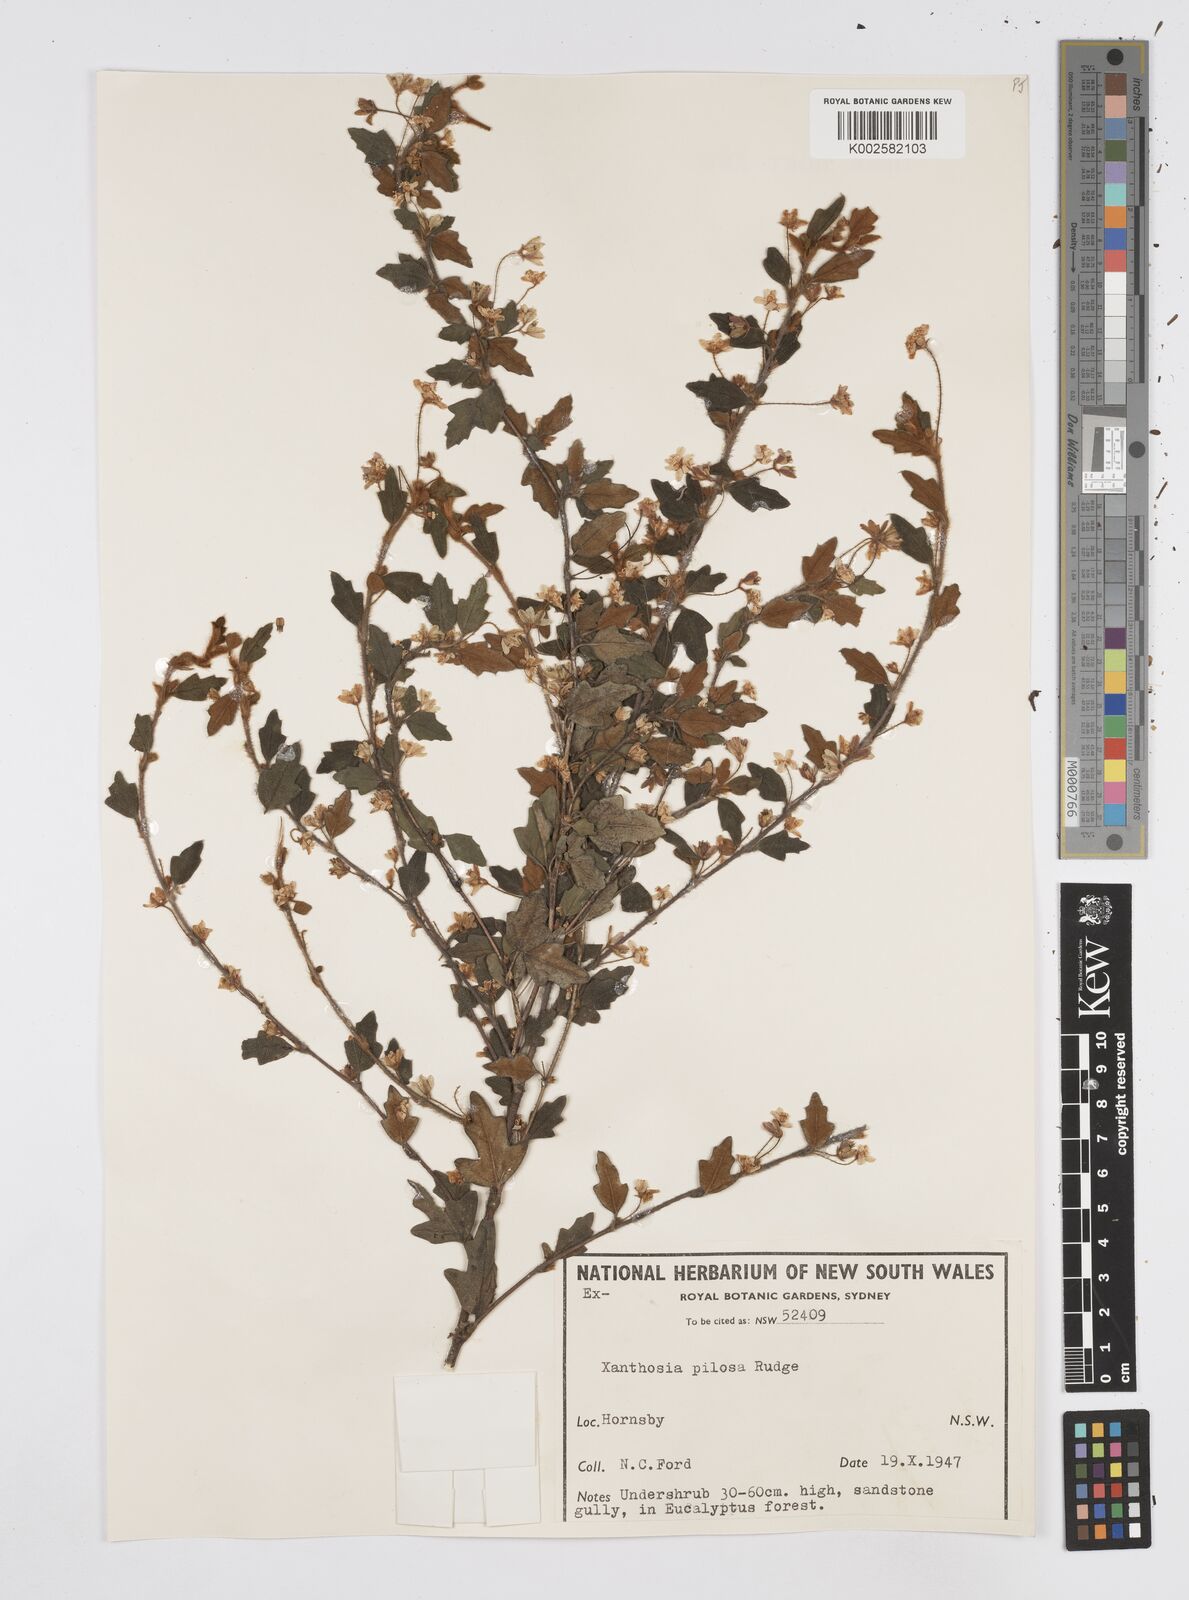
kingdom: Plantae
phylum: Tracheophyta
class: Magnoliopsida
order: Apiales
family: Apiaceae
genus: Xanthosia
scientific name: Xanthosia pilosa
